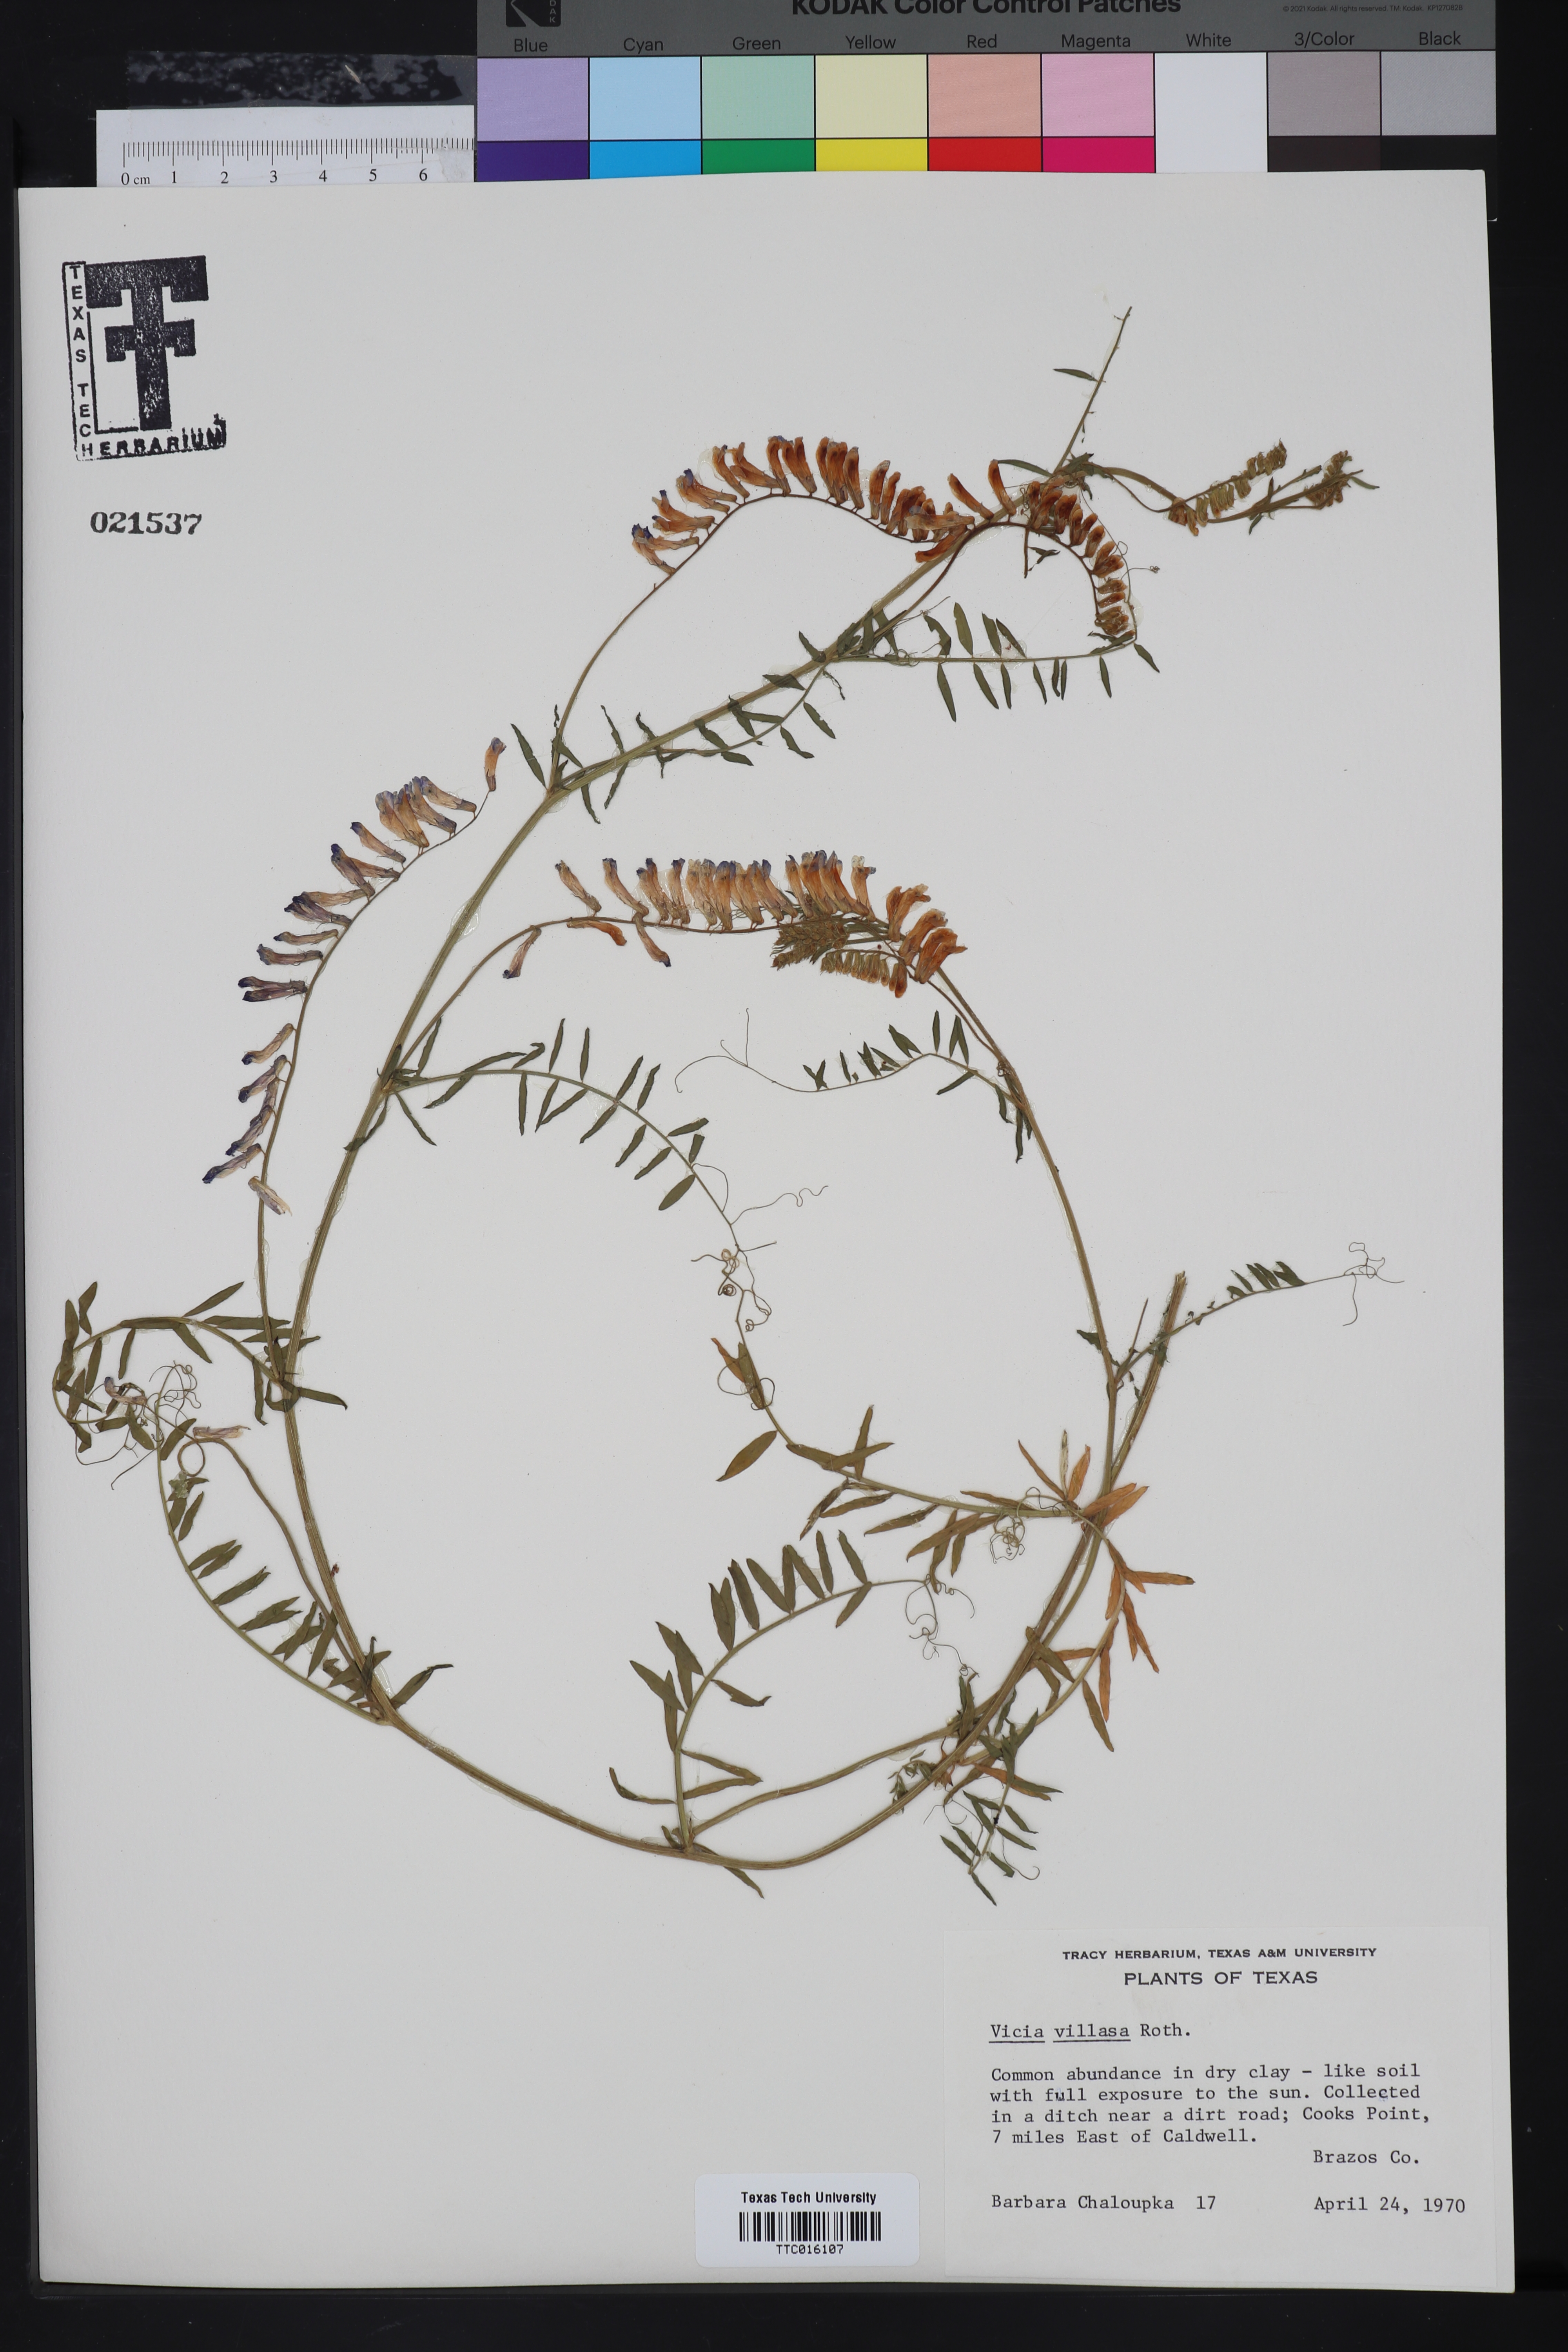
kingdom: Plantae
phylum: Tracheophyta
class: Magnoliopsida
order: Fabales
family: Fabaceae
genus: Vicia
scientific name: Vicia villosa
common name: Fodder vetch
